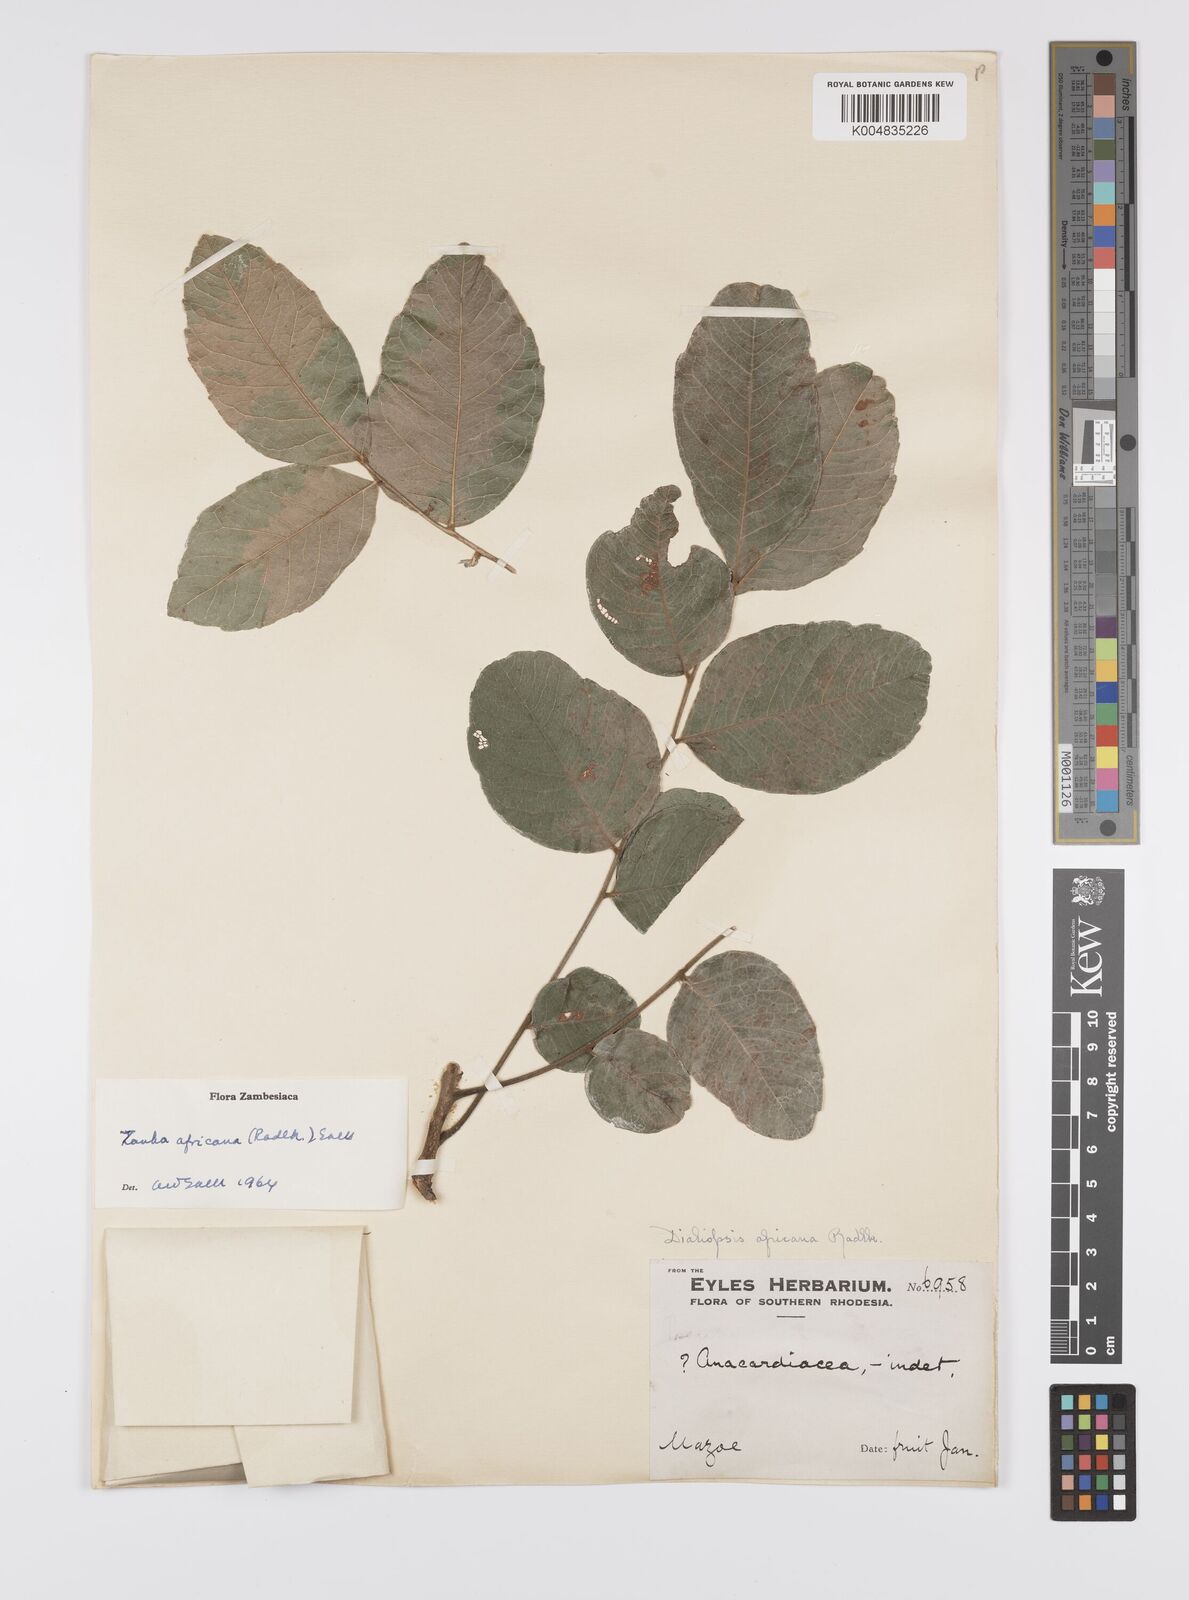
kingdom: Plantae
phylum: Tracheophyta
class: Magnoliopsida
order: Sapindales
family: Sapindaceae
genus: Zanha
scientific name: Zanha africana
